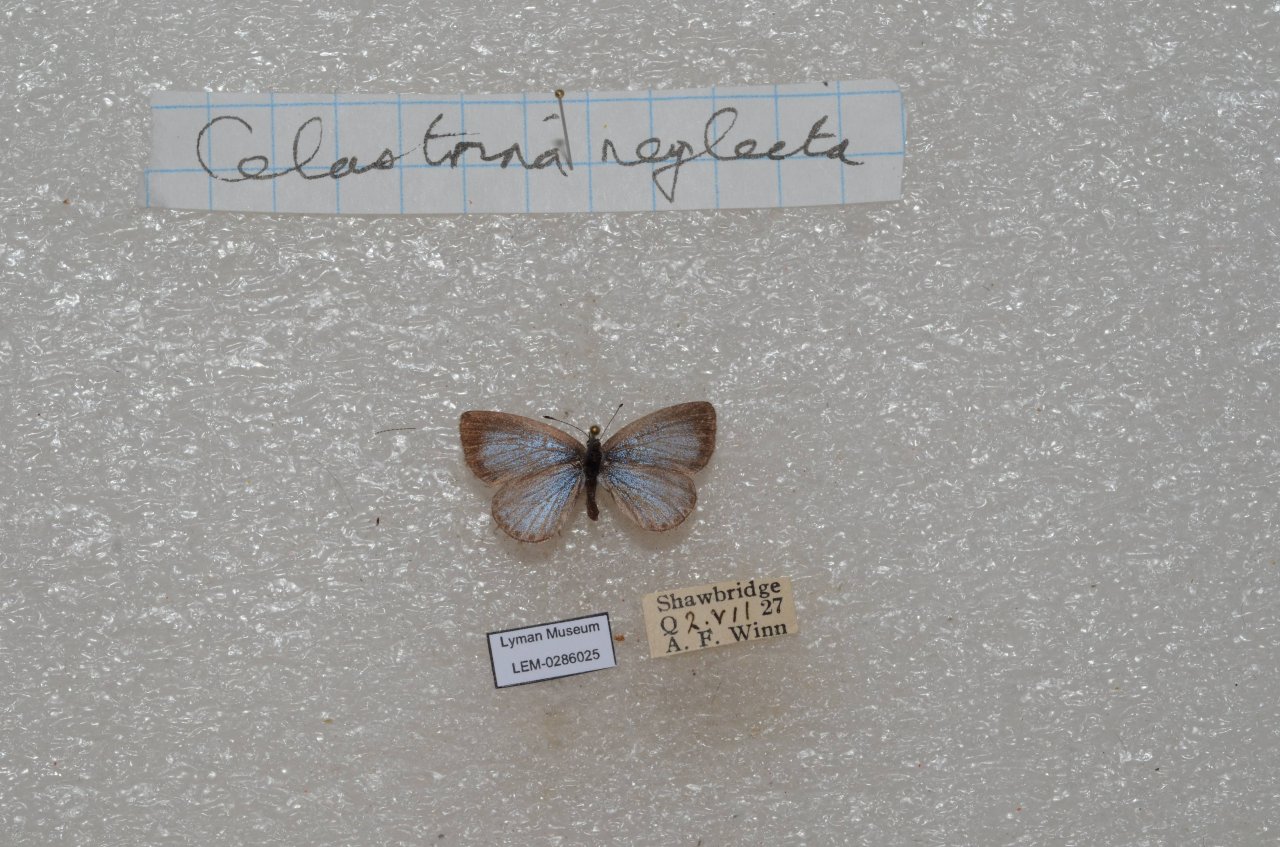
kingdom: Animalia
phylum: Arthropoda
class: Insecta
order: Lepidoptera
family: Lycaenidae
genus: Cyaniris
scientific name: Cyaniris neglecta
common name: Summer Azure
